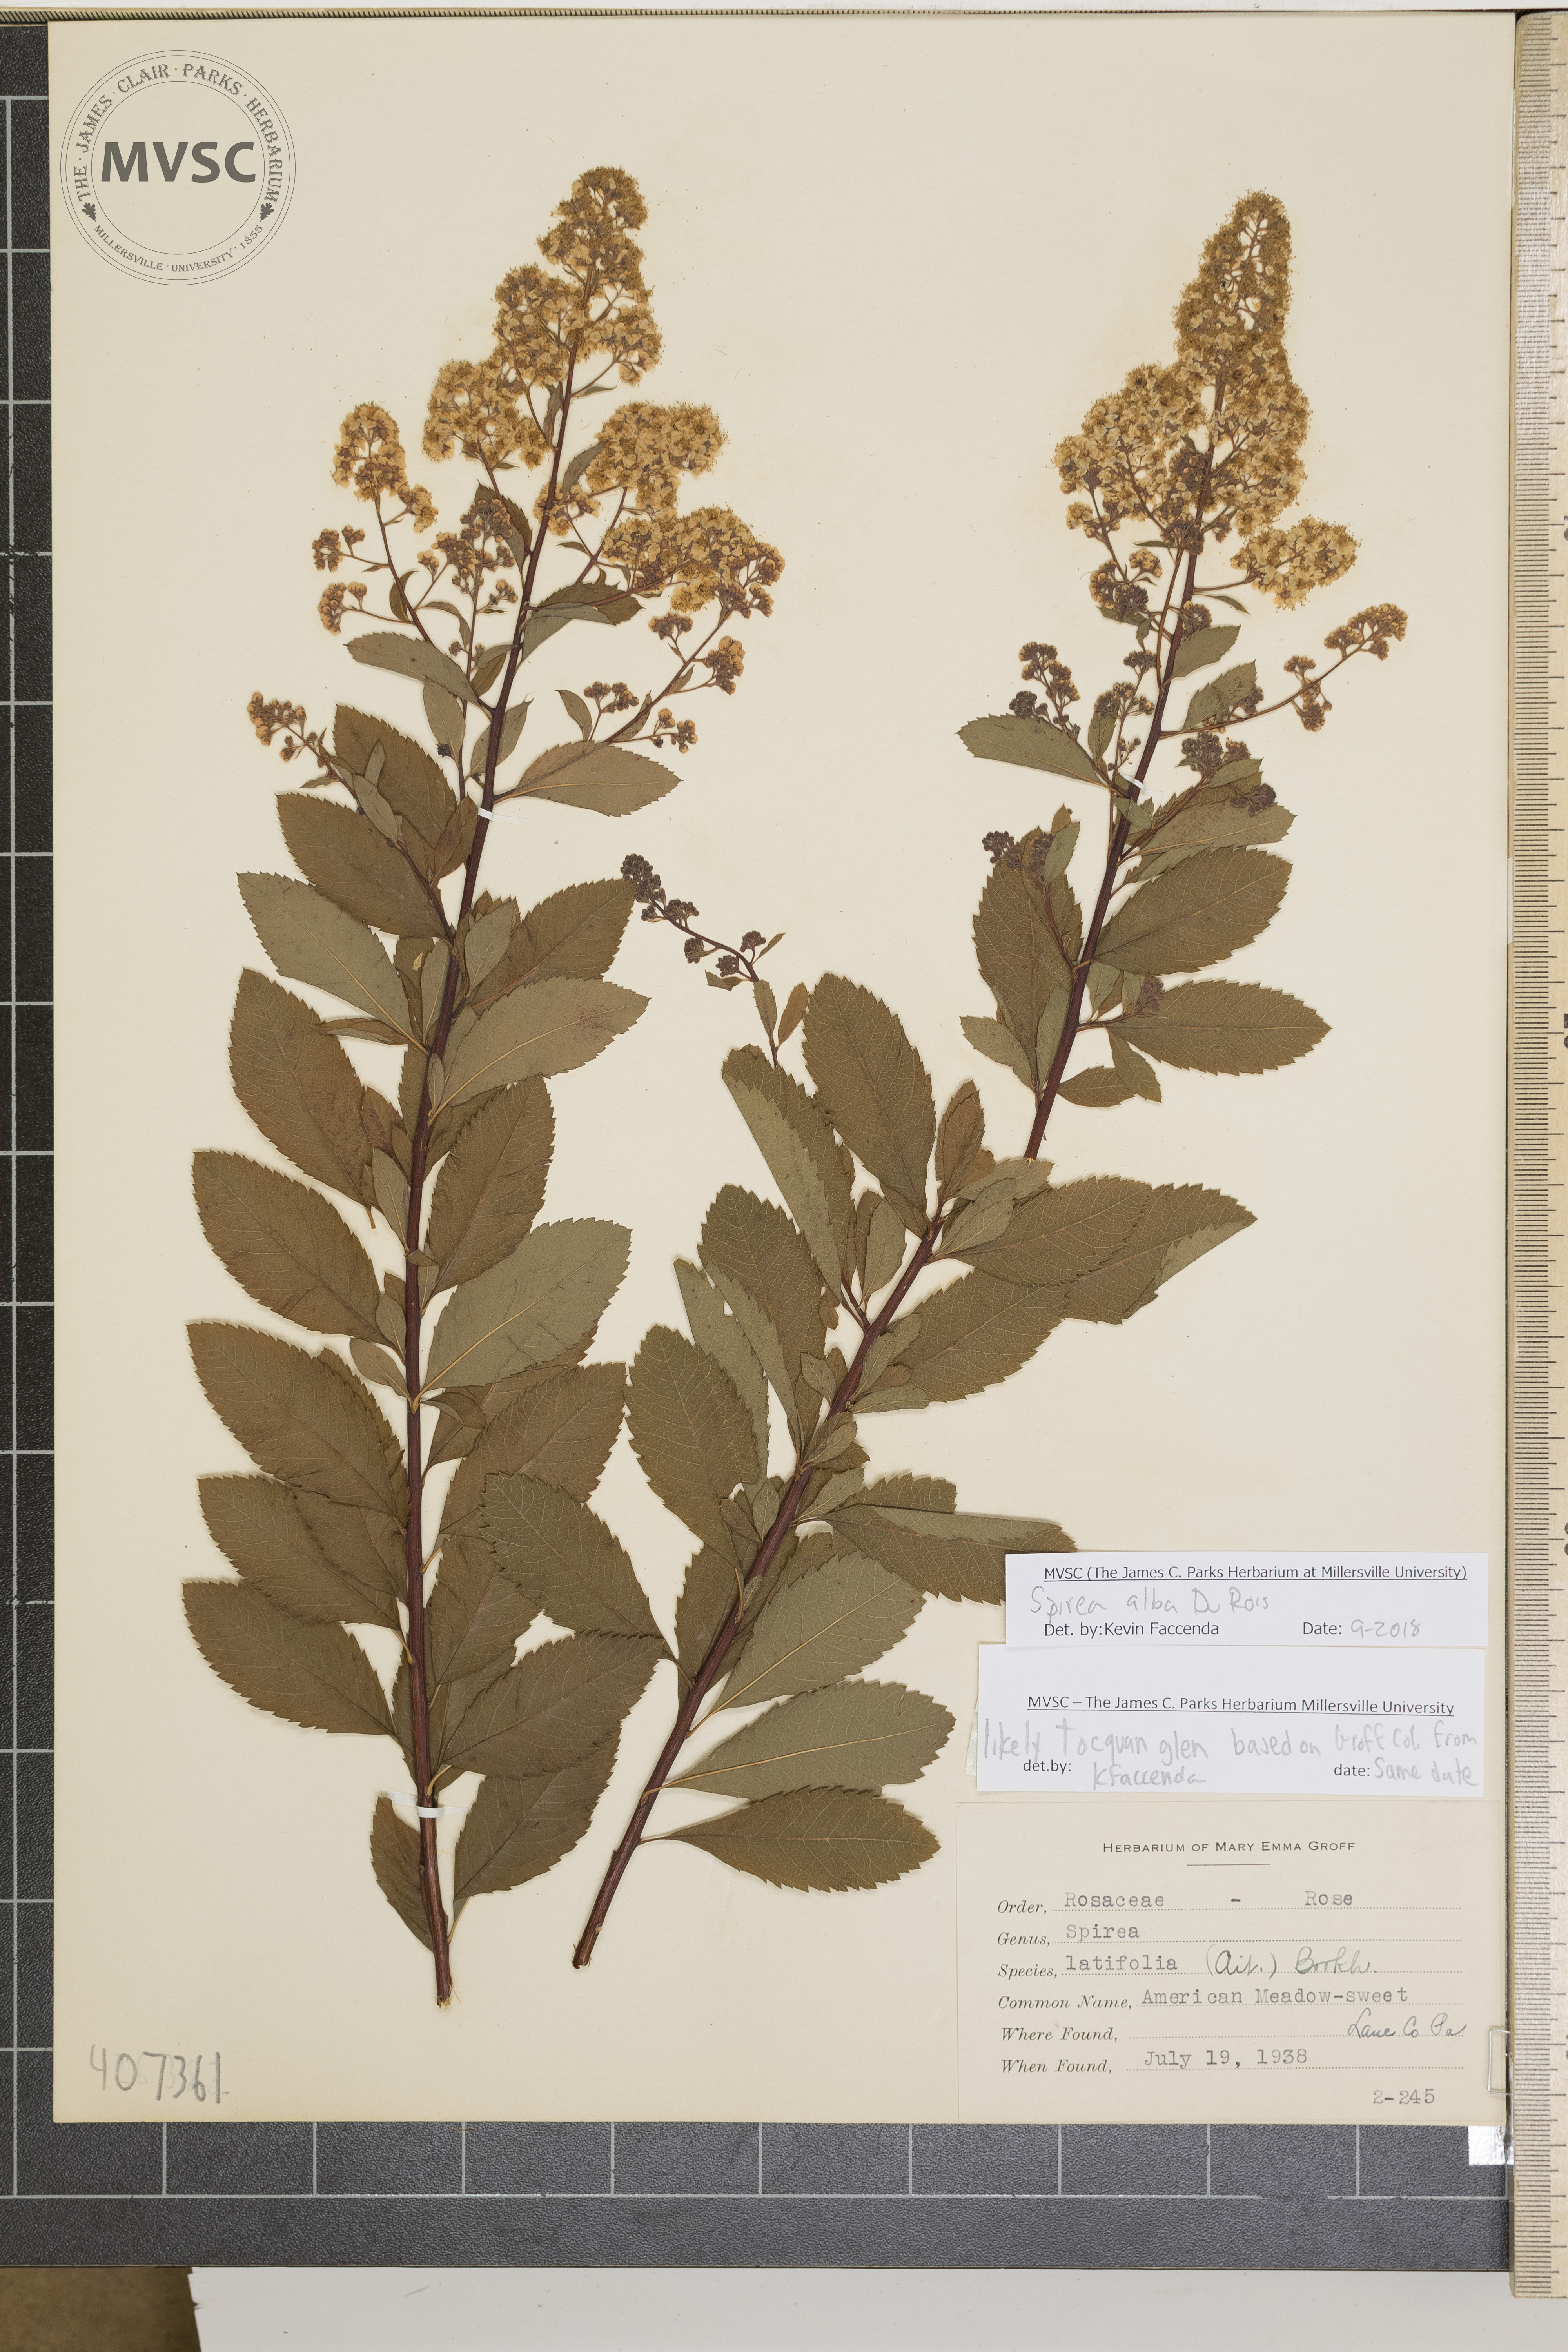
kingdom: Plantae
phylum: Tracheophyta
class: Magnoliopsida
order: Rosales
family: Rosaceae
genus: Spiraea
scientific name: Spiraea alba
